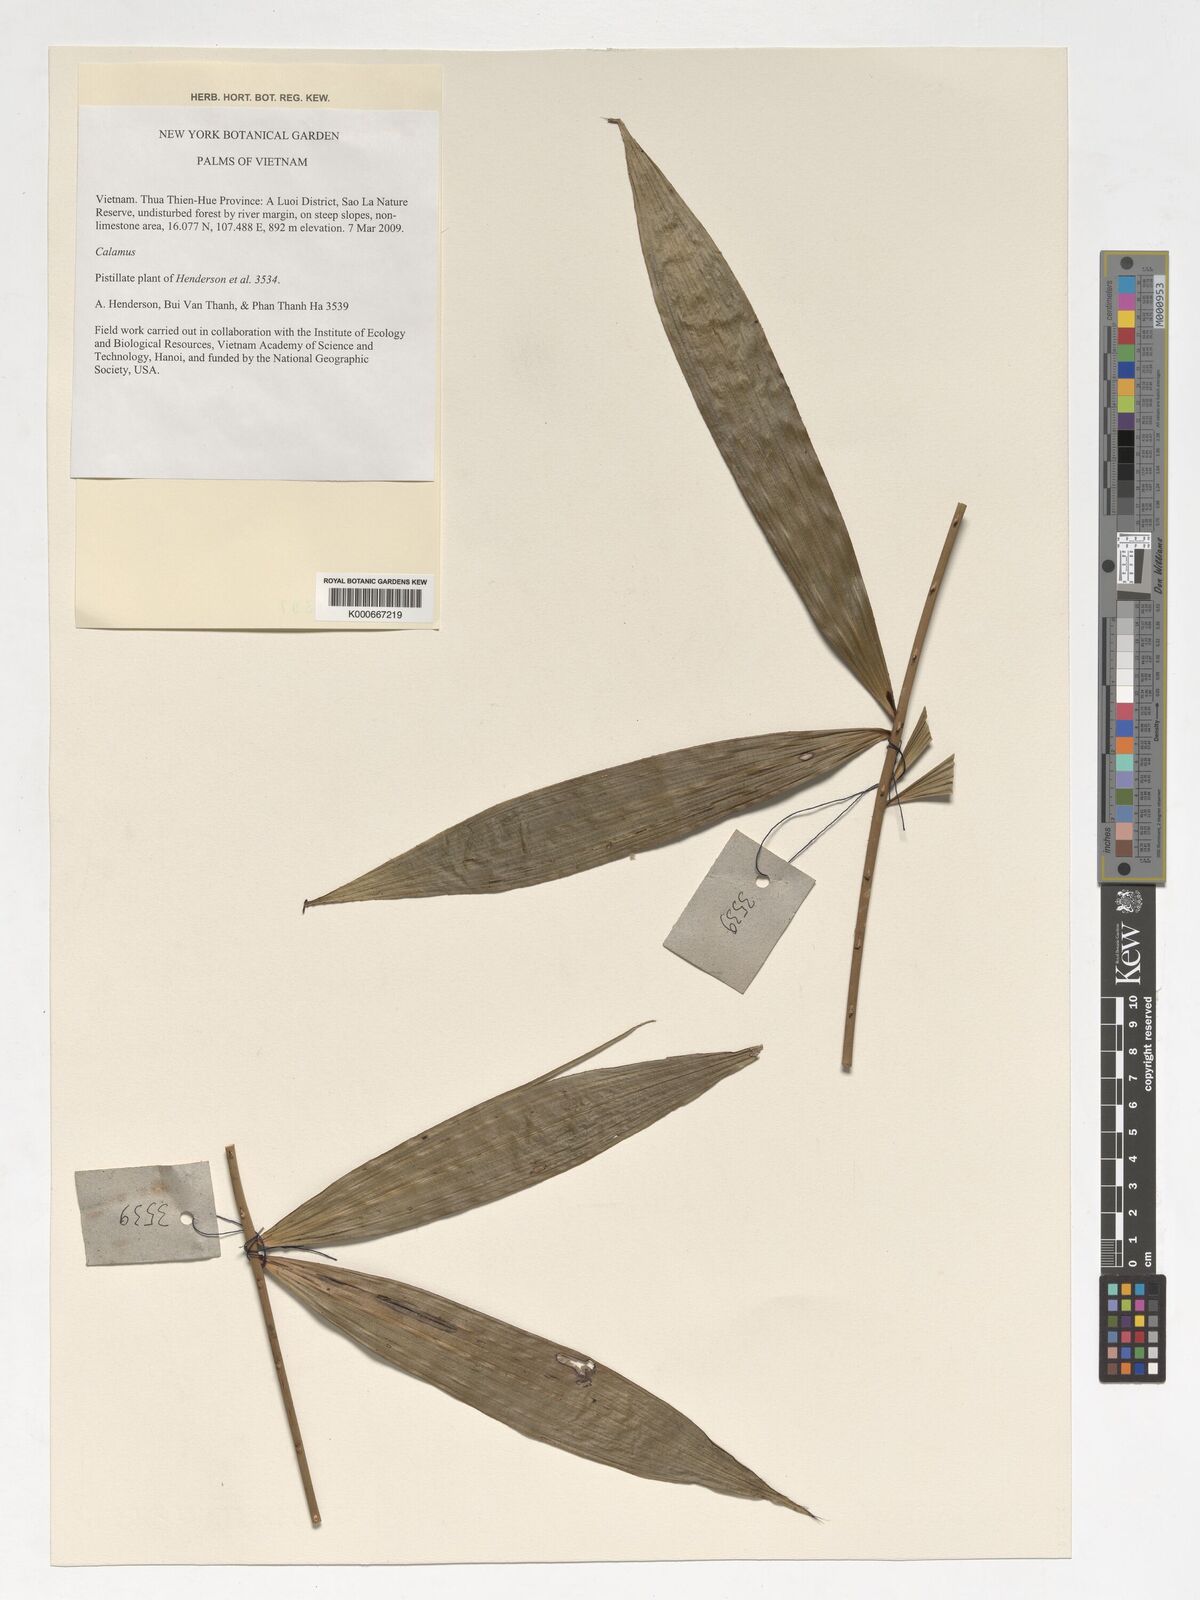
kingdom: Plantae
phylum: Tracheophyta
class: Liliopsida
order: Arecales
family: Arecaceae
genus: Calamus
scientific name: Calamus
